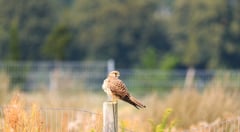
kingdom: Animalia
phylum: Chordata
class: Aves
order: Falconiformes
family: Falconidae
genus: Falco
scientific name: Falco tinnunculus
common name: Common kestrel
